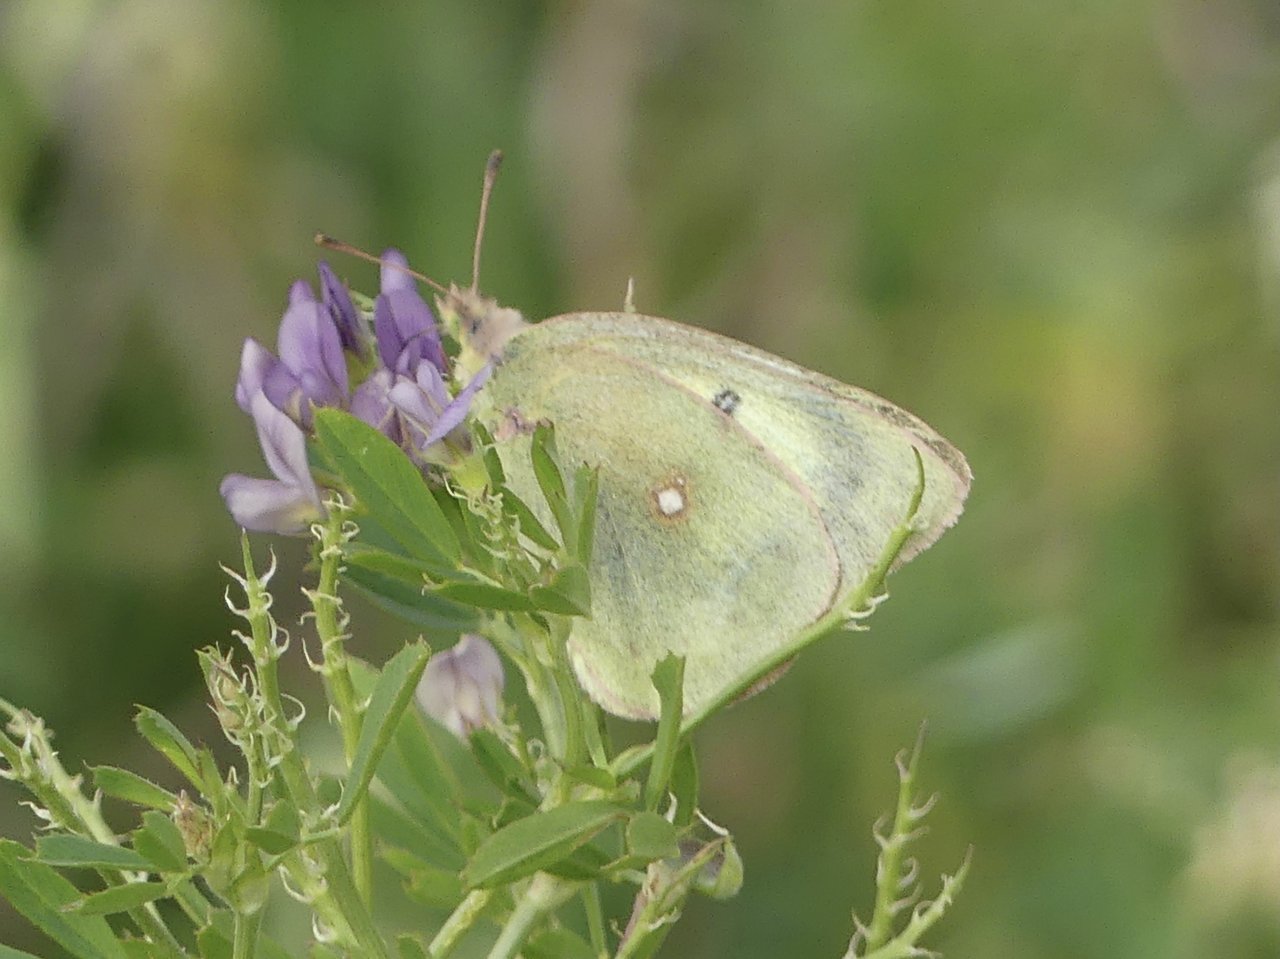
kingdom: Animalia
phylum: Arthropoda
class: Insecta
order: Lepidoptera
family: Pieridae
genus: Colias
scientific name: Colias philodice
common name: Clouded Sulphur
